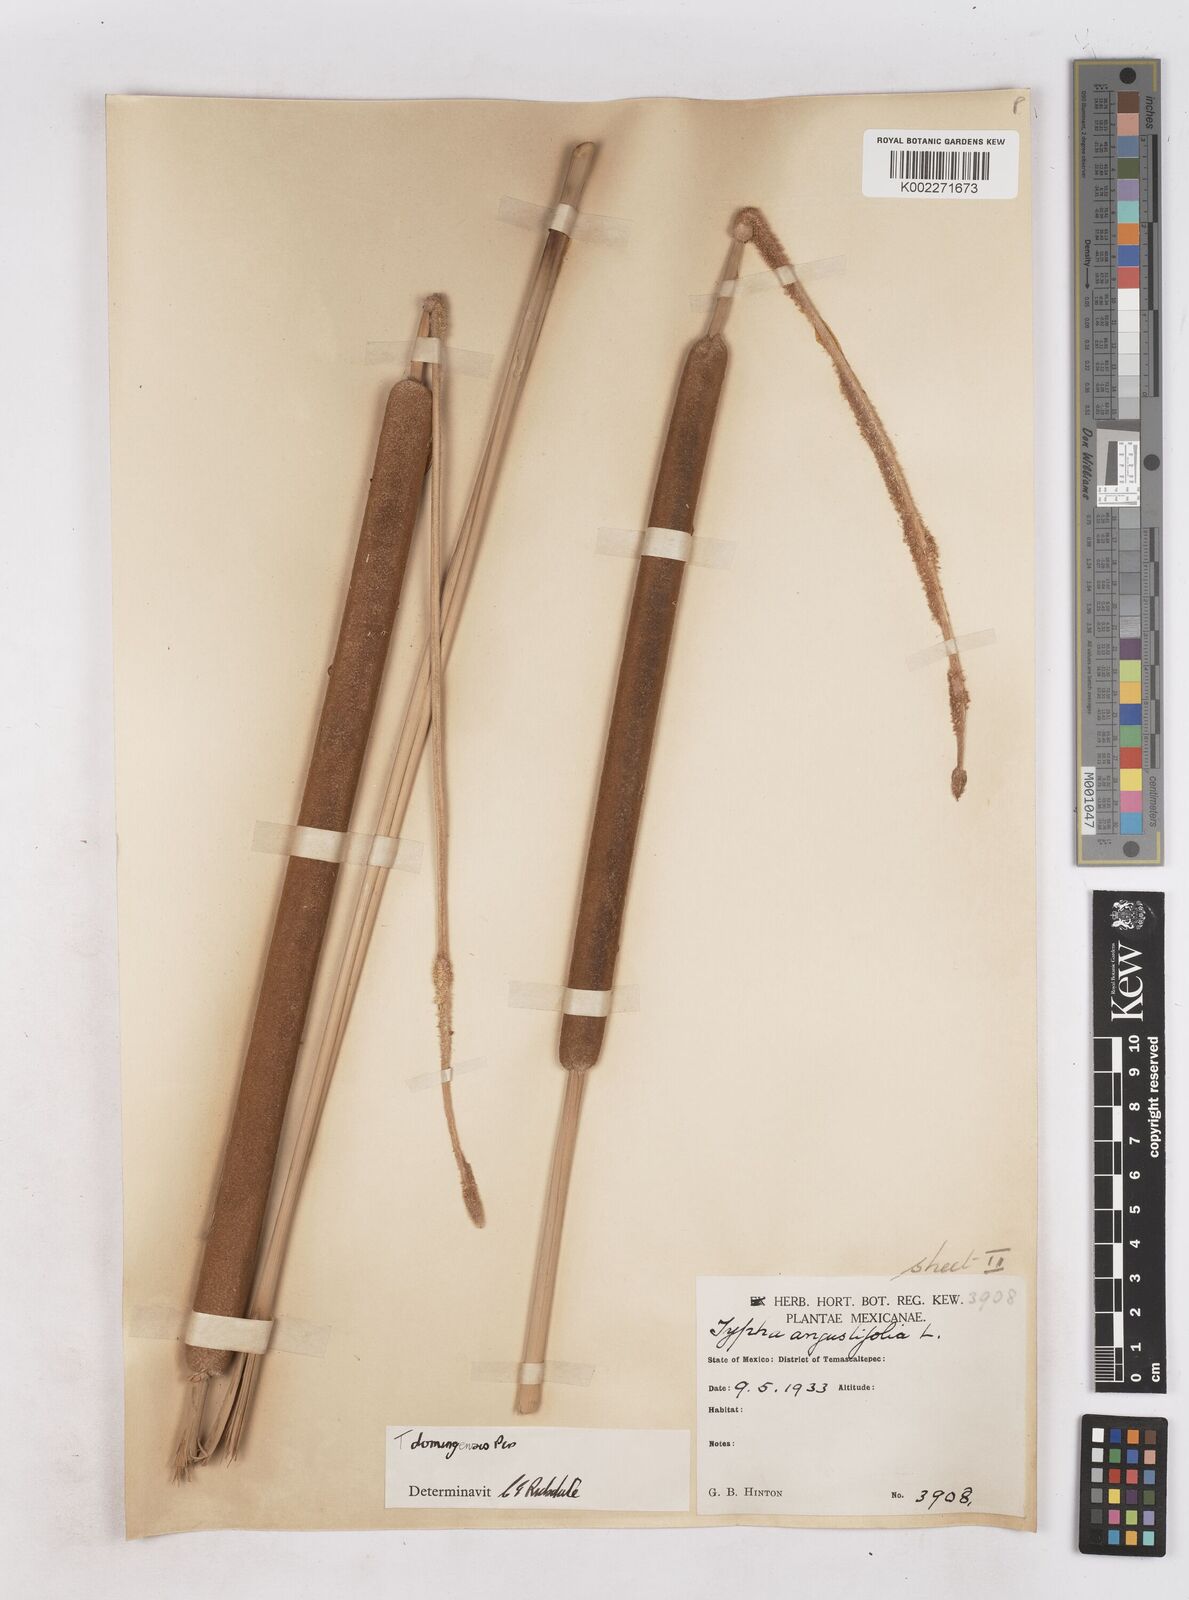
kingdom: Plantae
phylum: Tracheophyta
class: Liliopsida
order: Poales
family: Typhaceae
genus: Typha
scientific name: Typha domingensis
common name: Southern cattail
